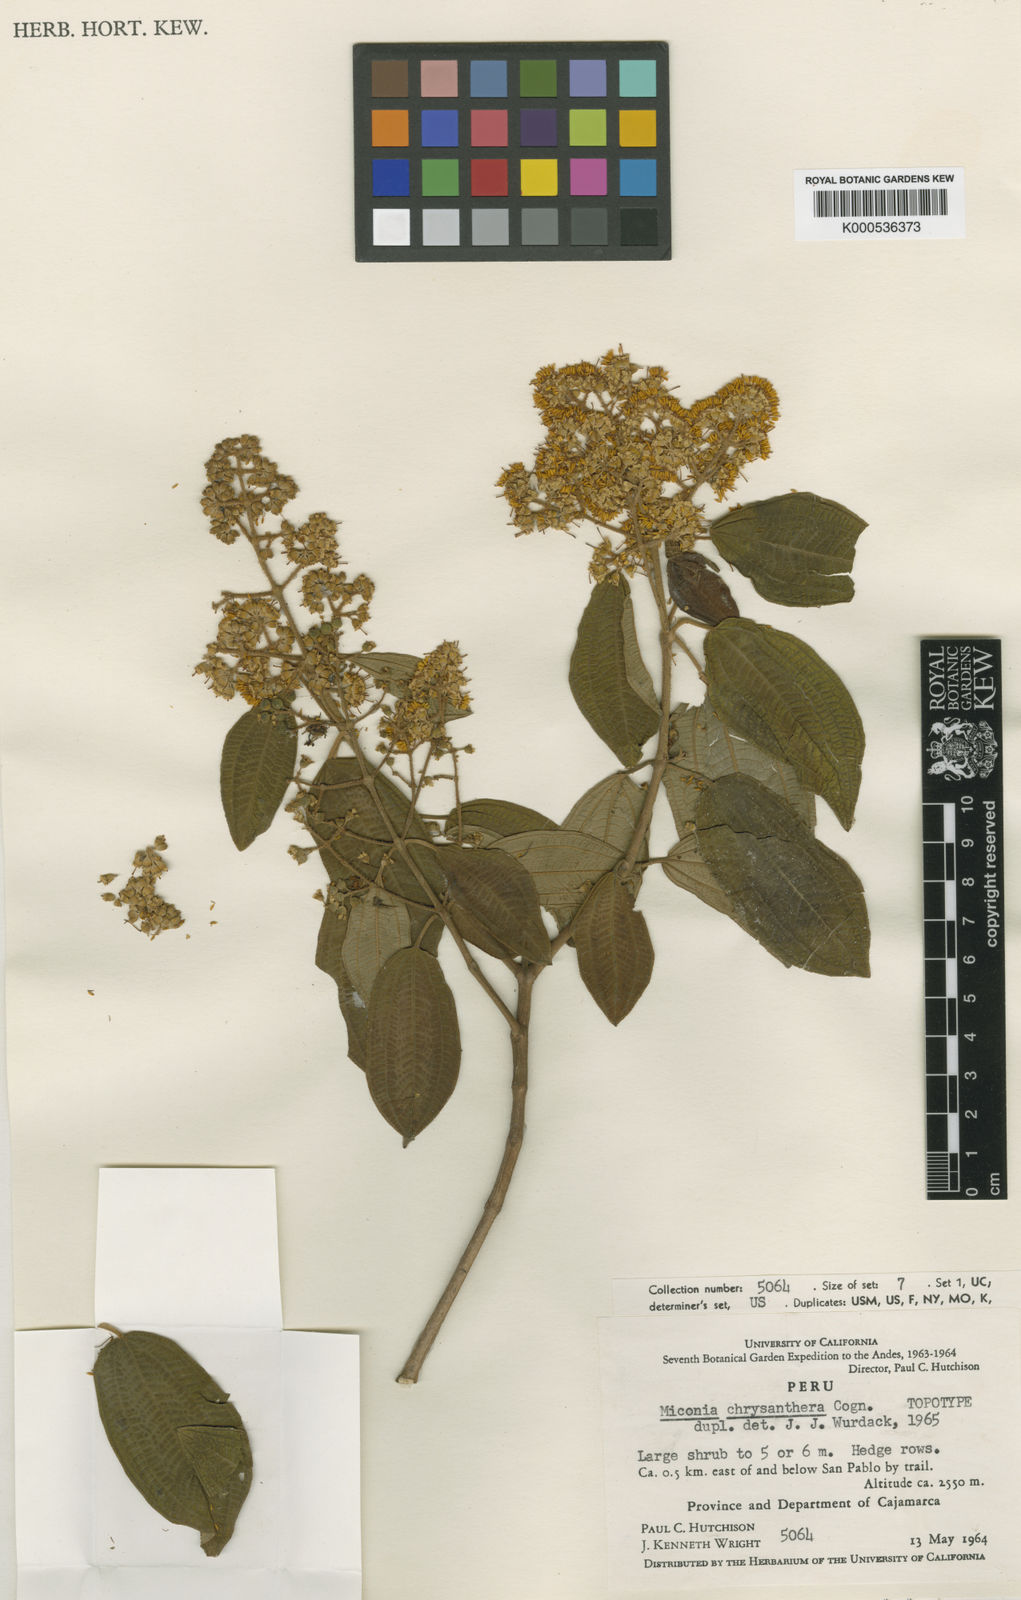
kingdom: Plantae
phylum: Tracheophyta
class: Magnoliopsida
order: Myrtales
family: Melastomataceae
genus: Miconia
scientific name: Miconia pichinchensis
